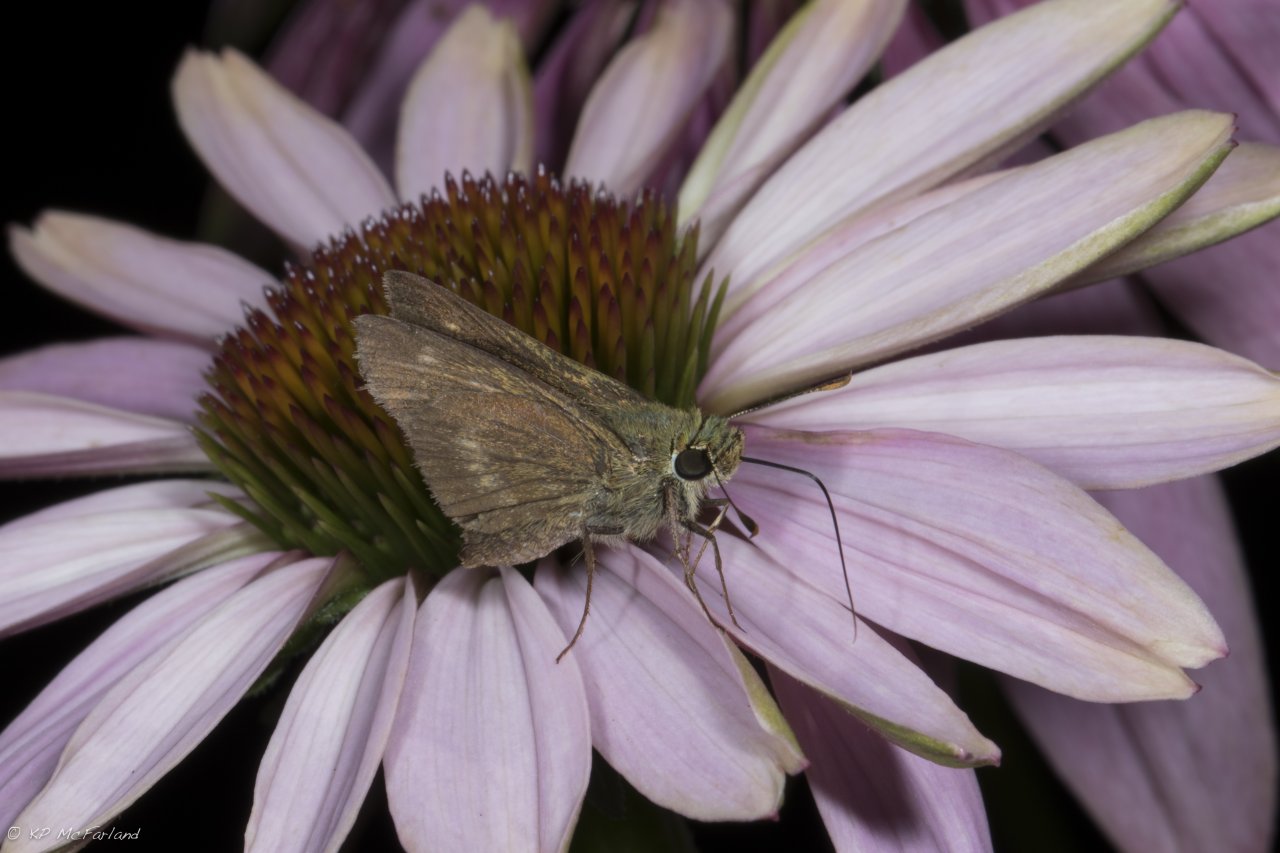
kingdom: Animalia
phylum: Arthropoda
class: Insecta
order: Lepidoptera
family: Hesperiidae
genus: Polites
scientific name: Polites egeremet
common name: Northern Broken-Dash
